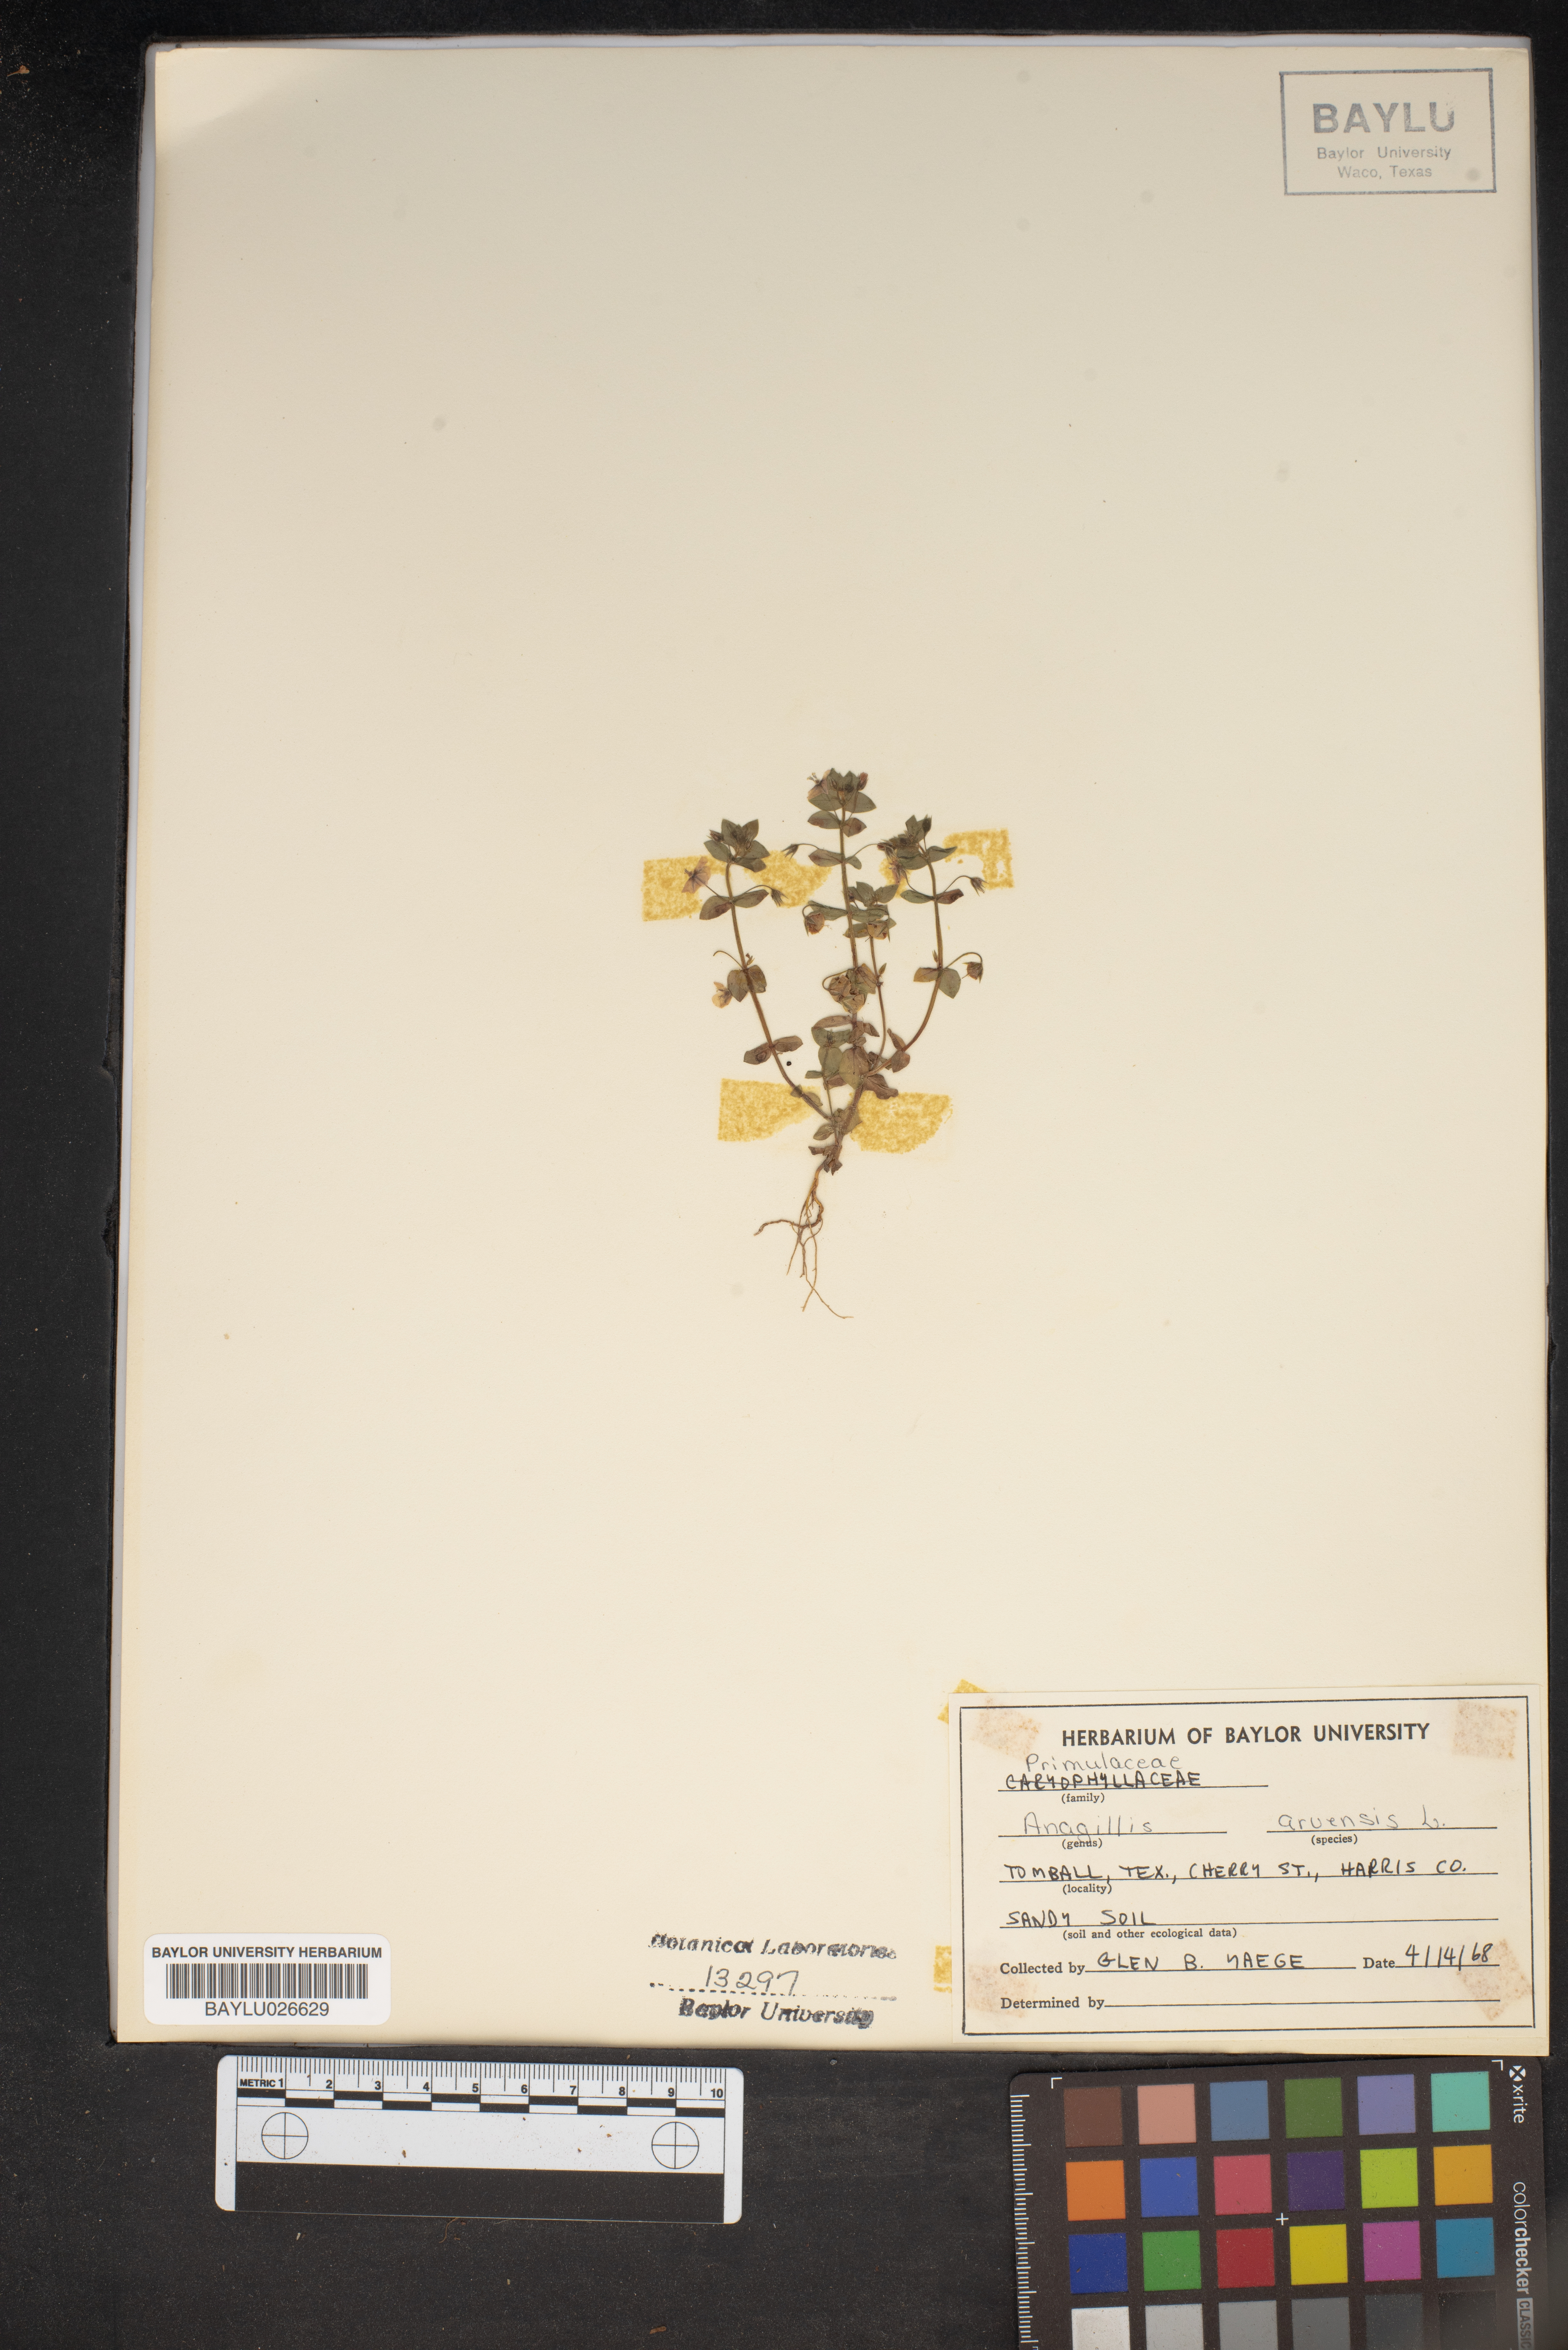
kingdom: Plantae
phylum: Tracheophyta
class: Magnoliopsida
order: Ericales
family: Primulaceae
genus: Lysimachia
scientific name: Lysimachia arvensis
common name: Scarlet pimpernel
